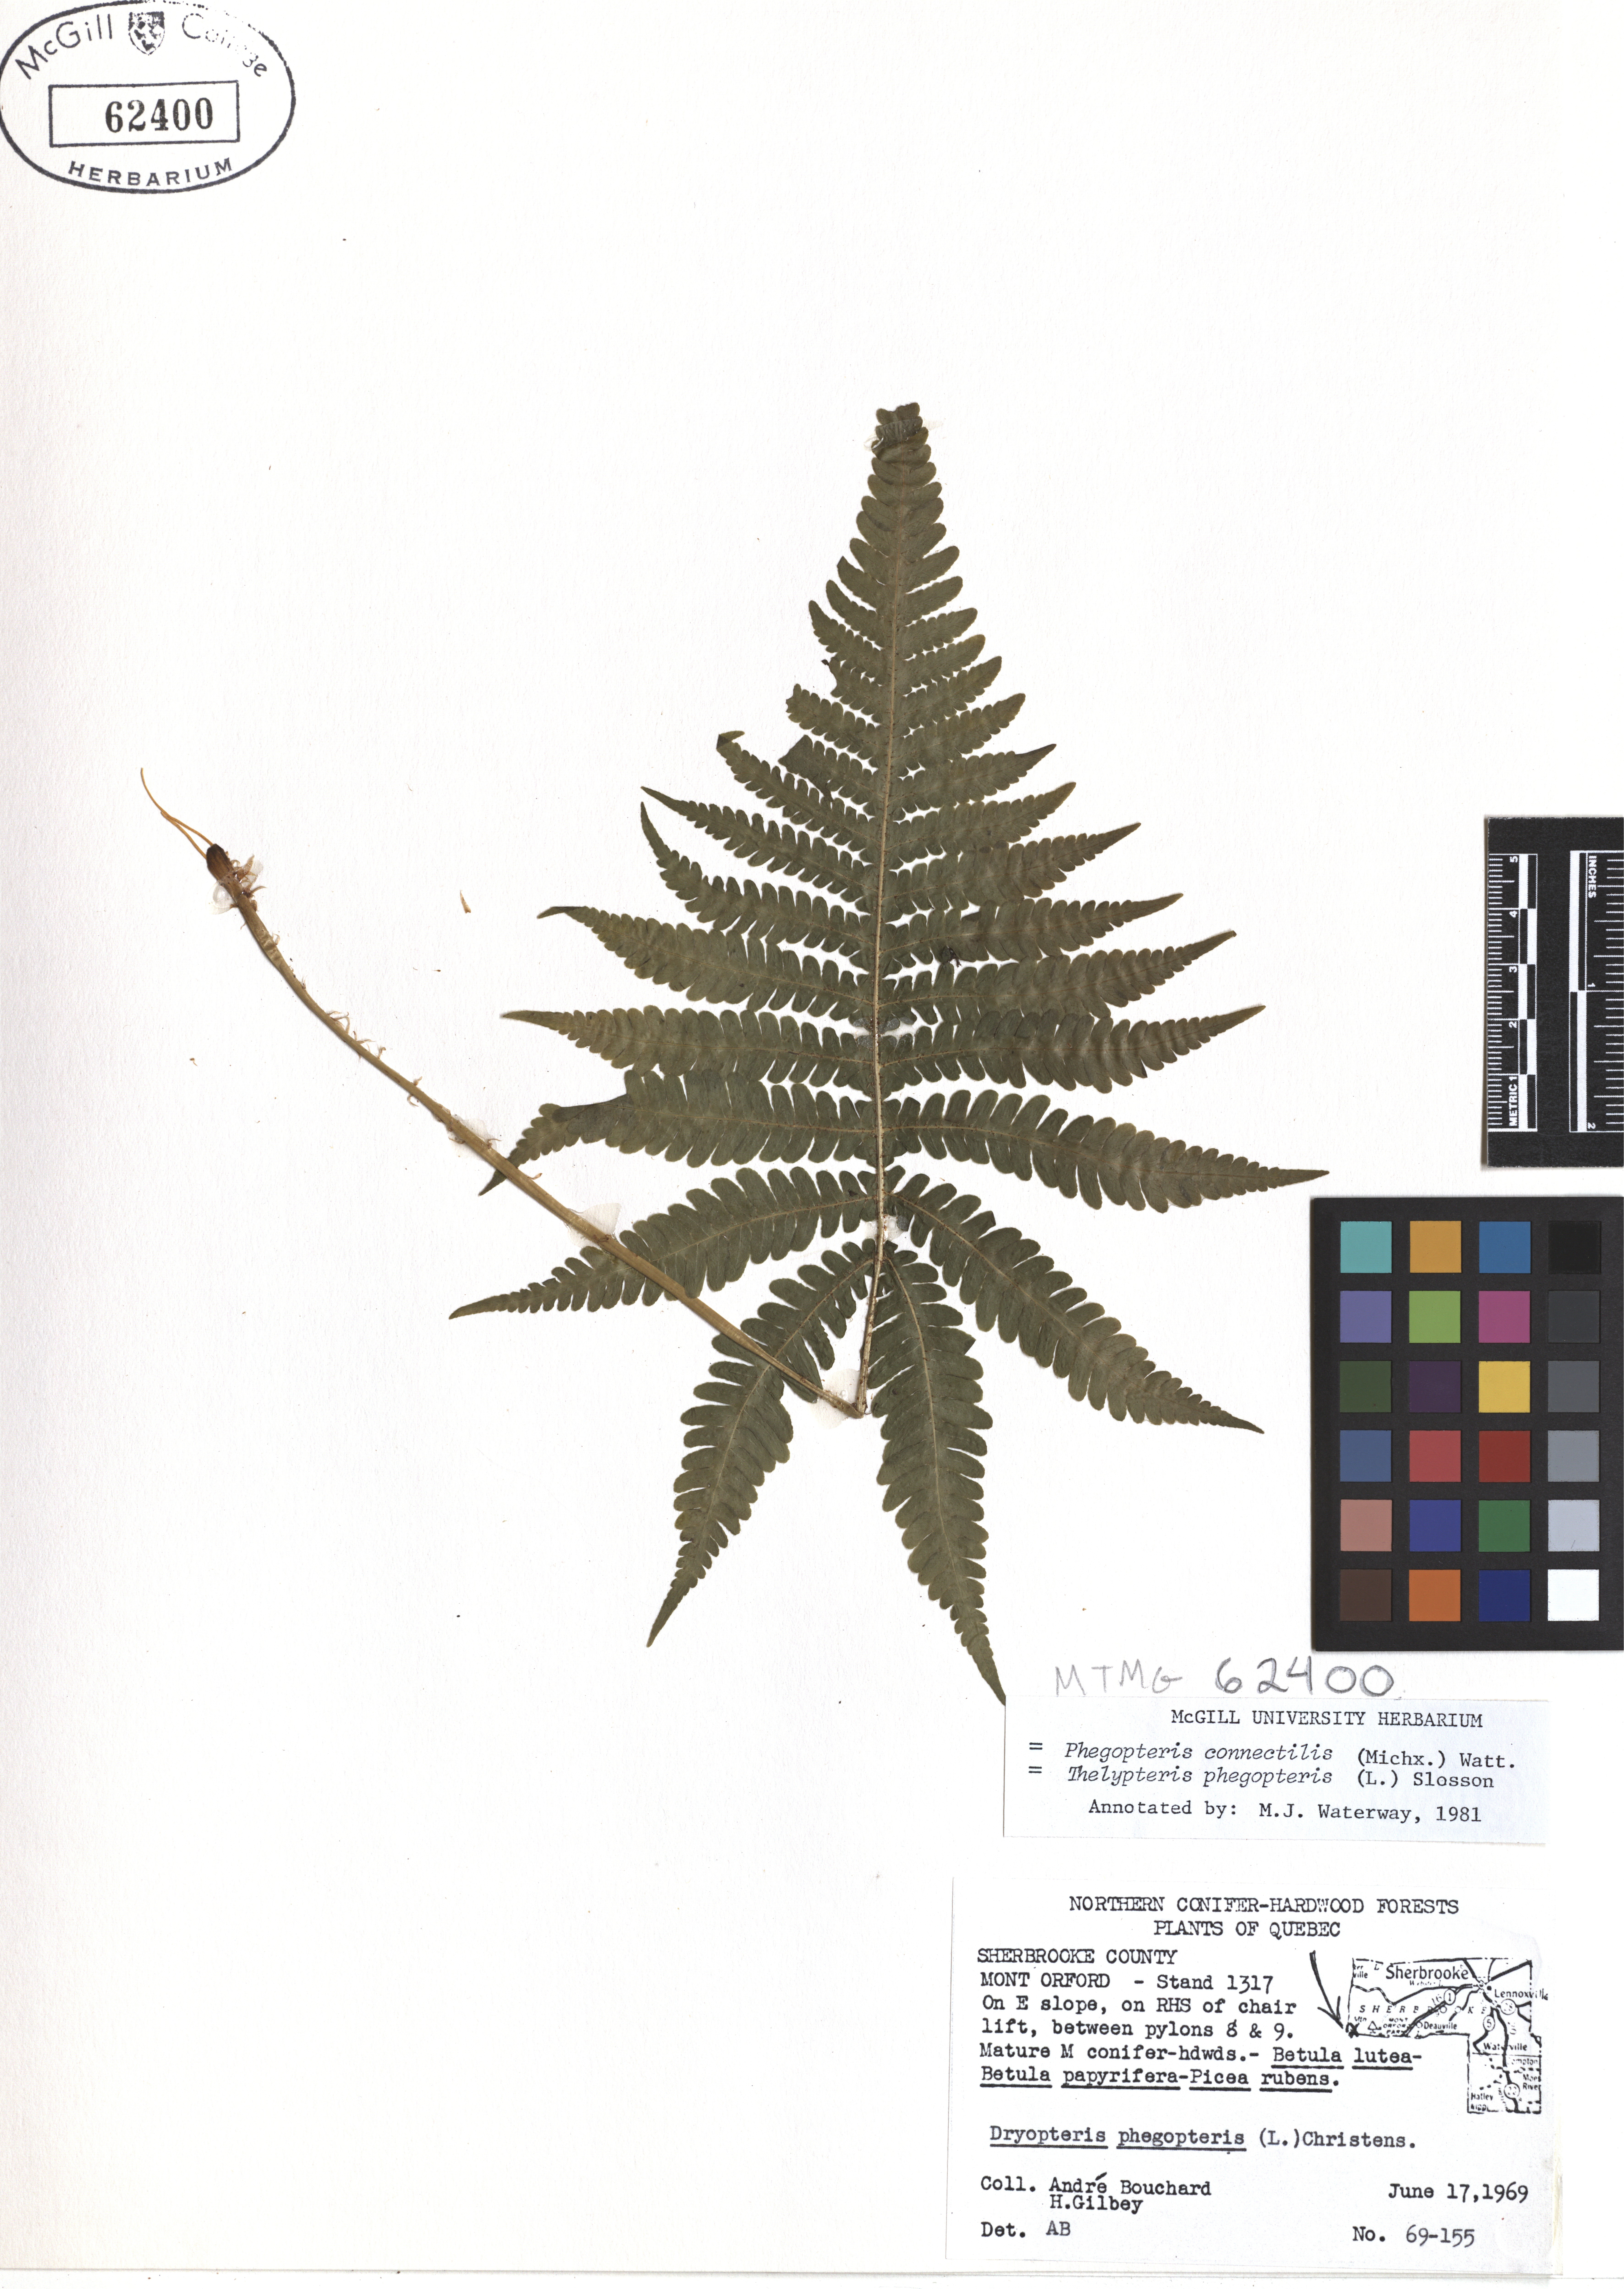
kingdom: Plantae
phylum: Tracheophyta
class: Polypodiopsida
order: Polypodiales
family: Thelypteridaceae
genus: Phegopteris
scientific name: Phegopteris connectilis
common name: Beech fern
